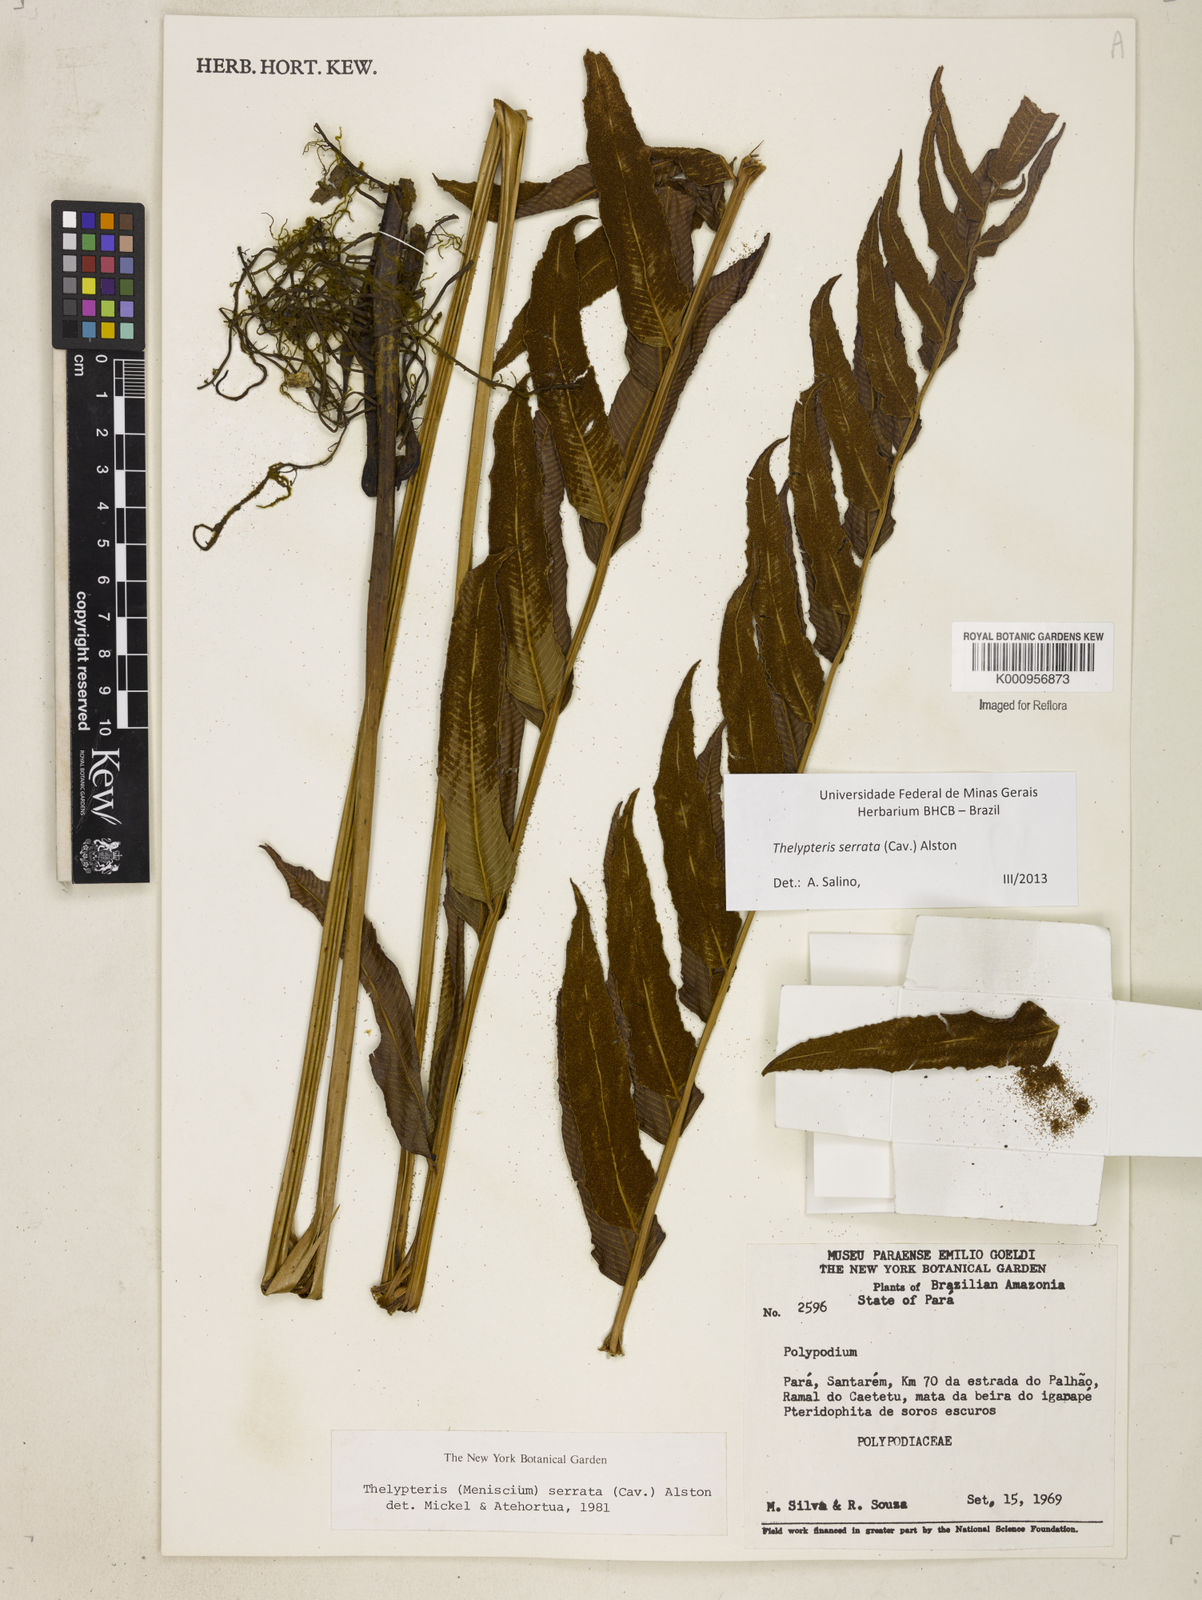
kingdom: Plantae
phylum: Tracheophyta
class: Polypodiopsida
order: Polypodiales
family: Thelypteridaceae
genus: Meniscium
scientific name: Meniscium serratum
